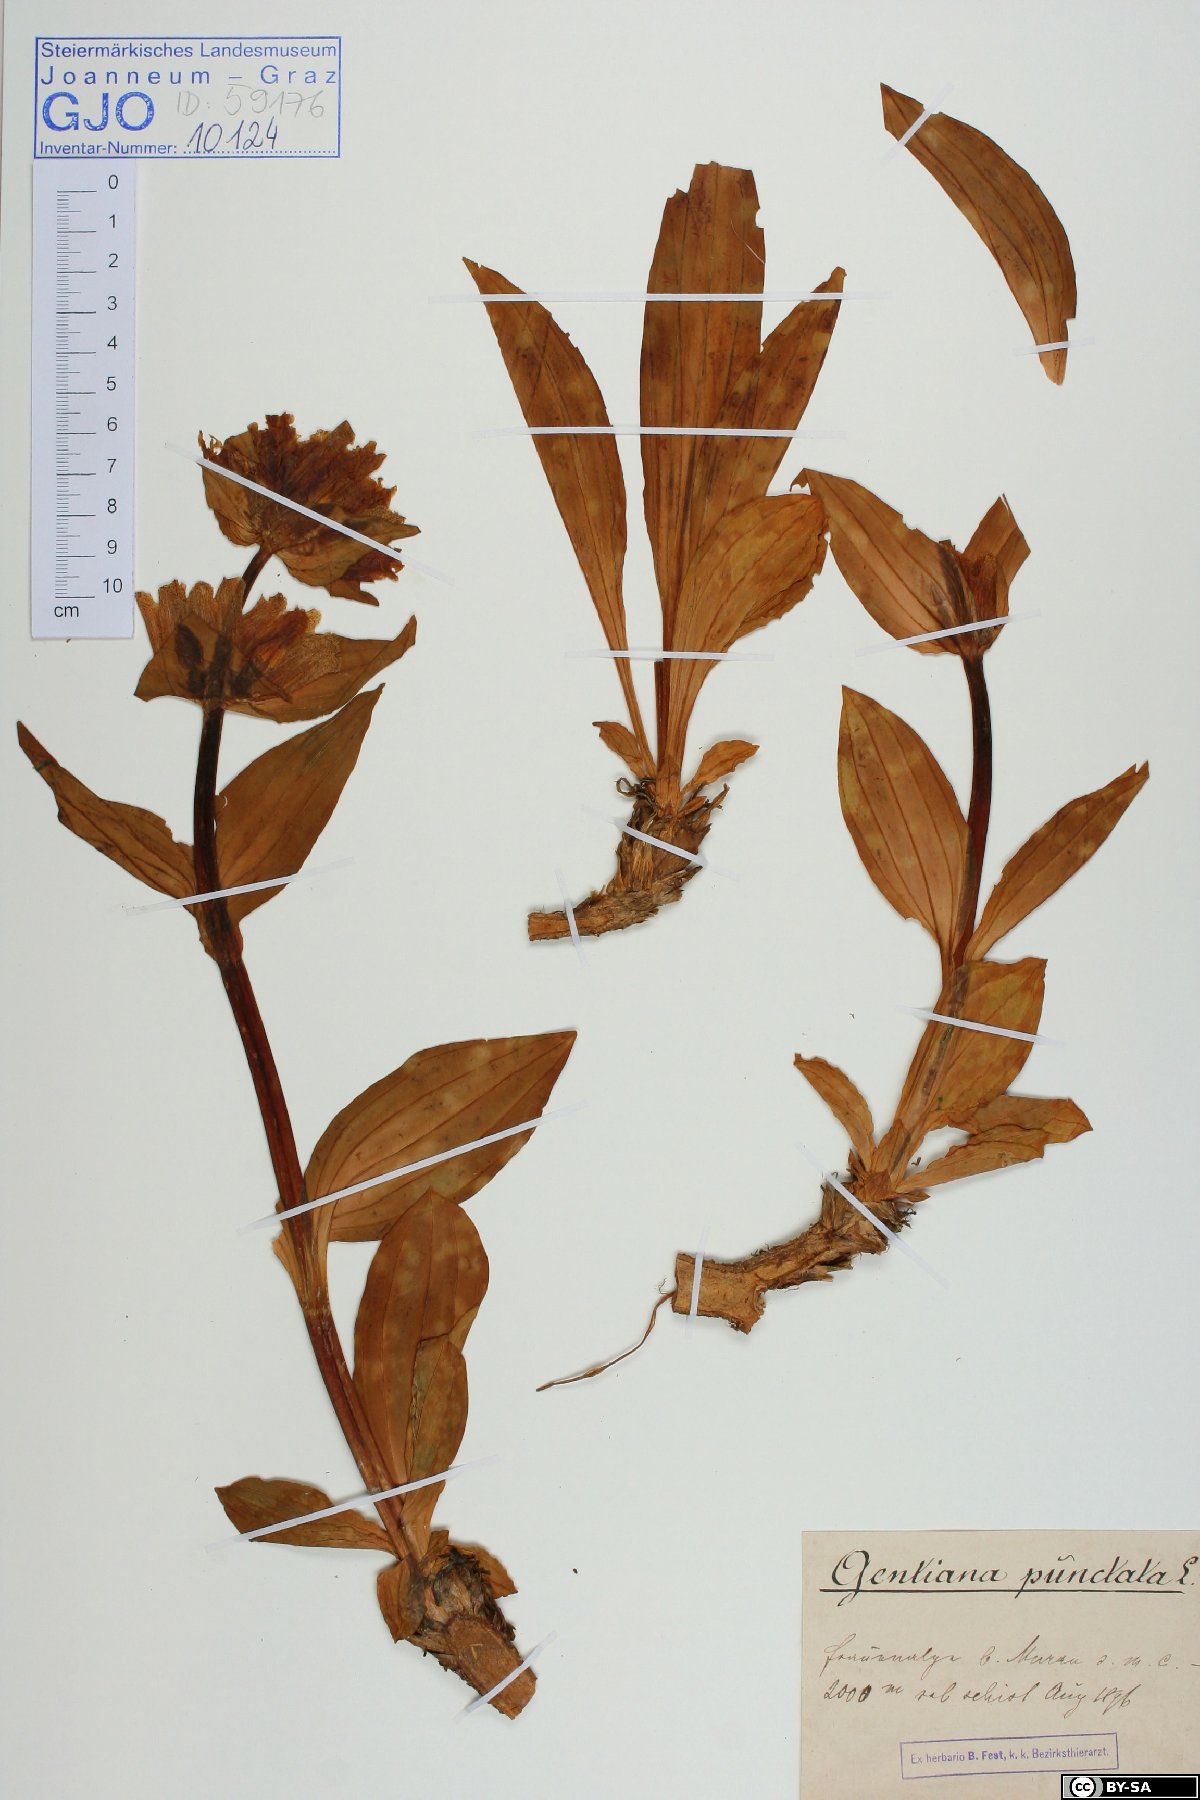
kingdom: Plantae
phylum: Tracheophyta
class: Magnoliopsida
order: Gentianales
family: Gentianaceae
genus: Gentiana
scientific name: Gentiana punctata
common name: Spotted gentian
